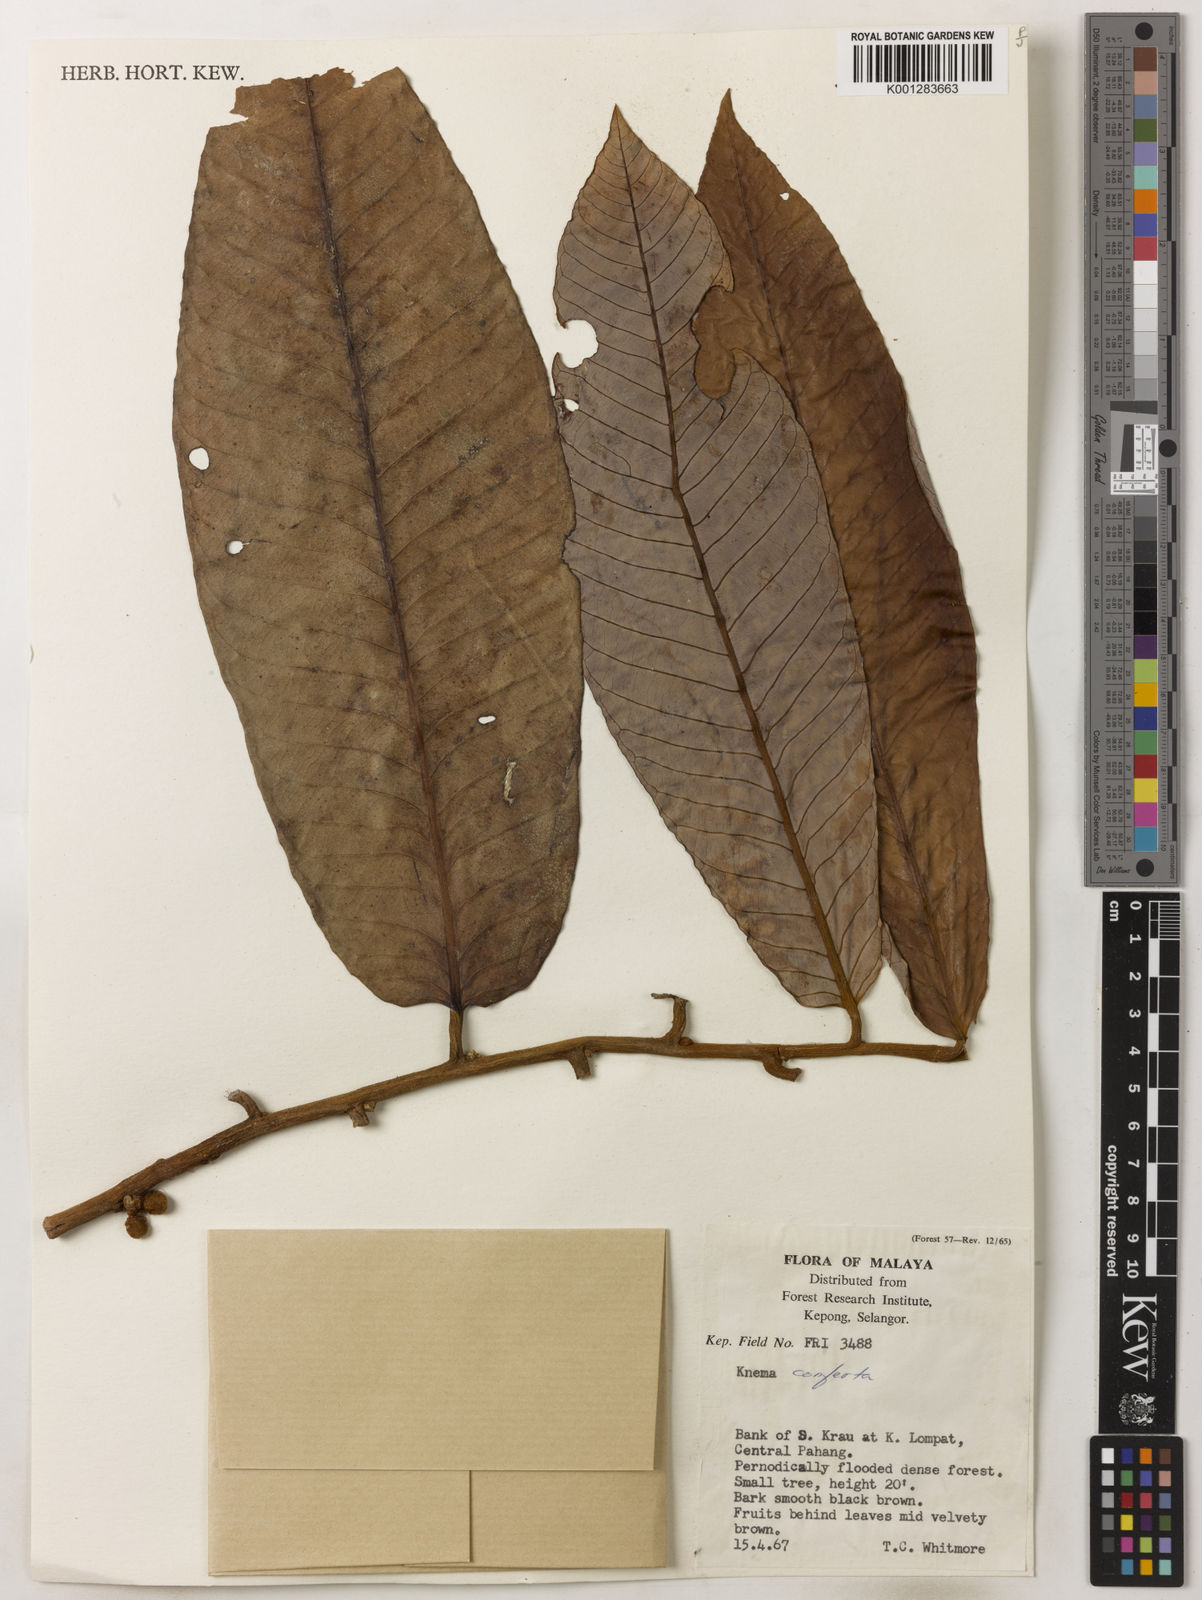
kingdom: Plantae
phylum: Tracheophyta
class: Magnoliopsida
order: Magnoliales
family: Myristicaceae
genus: Knema
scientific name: Knema conferta
